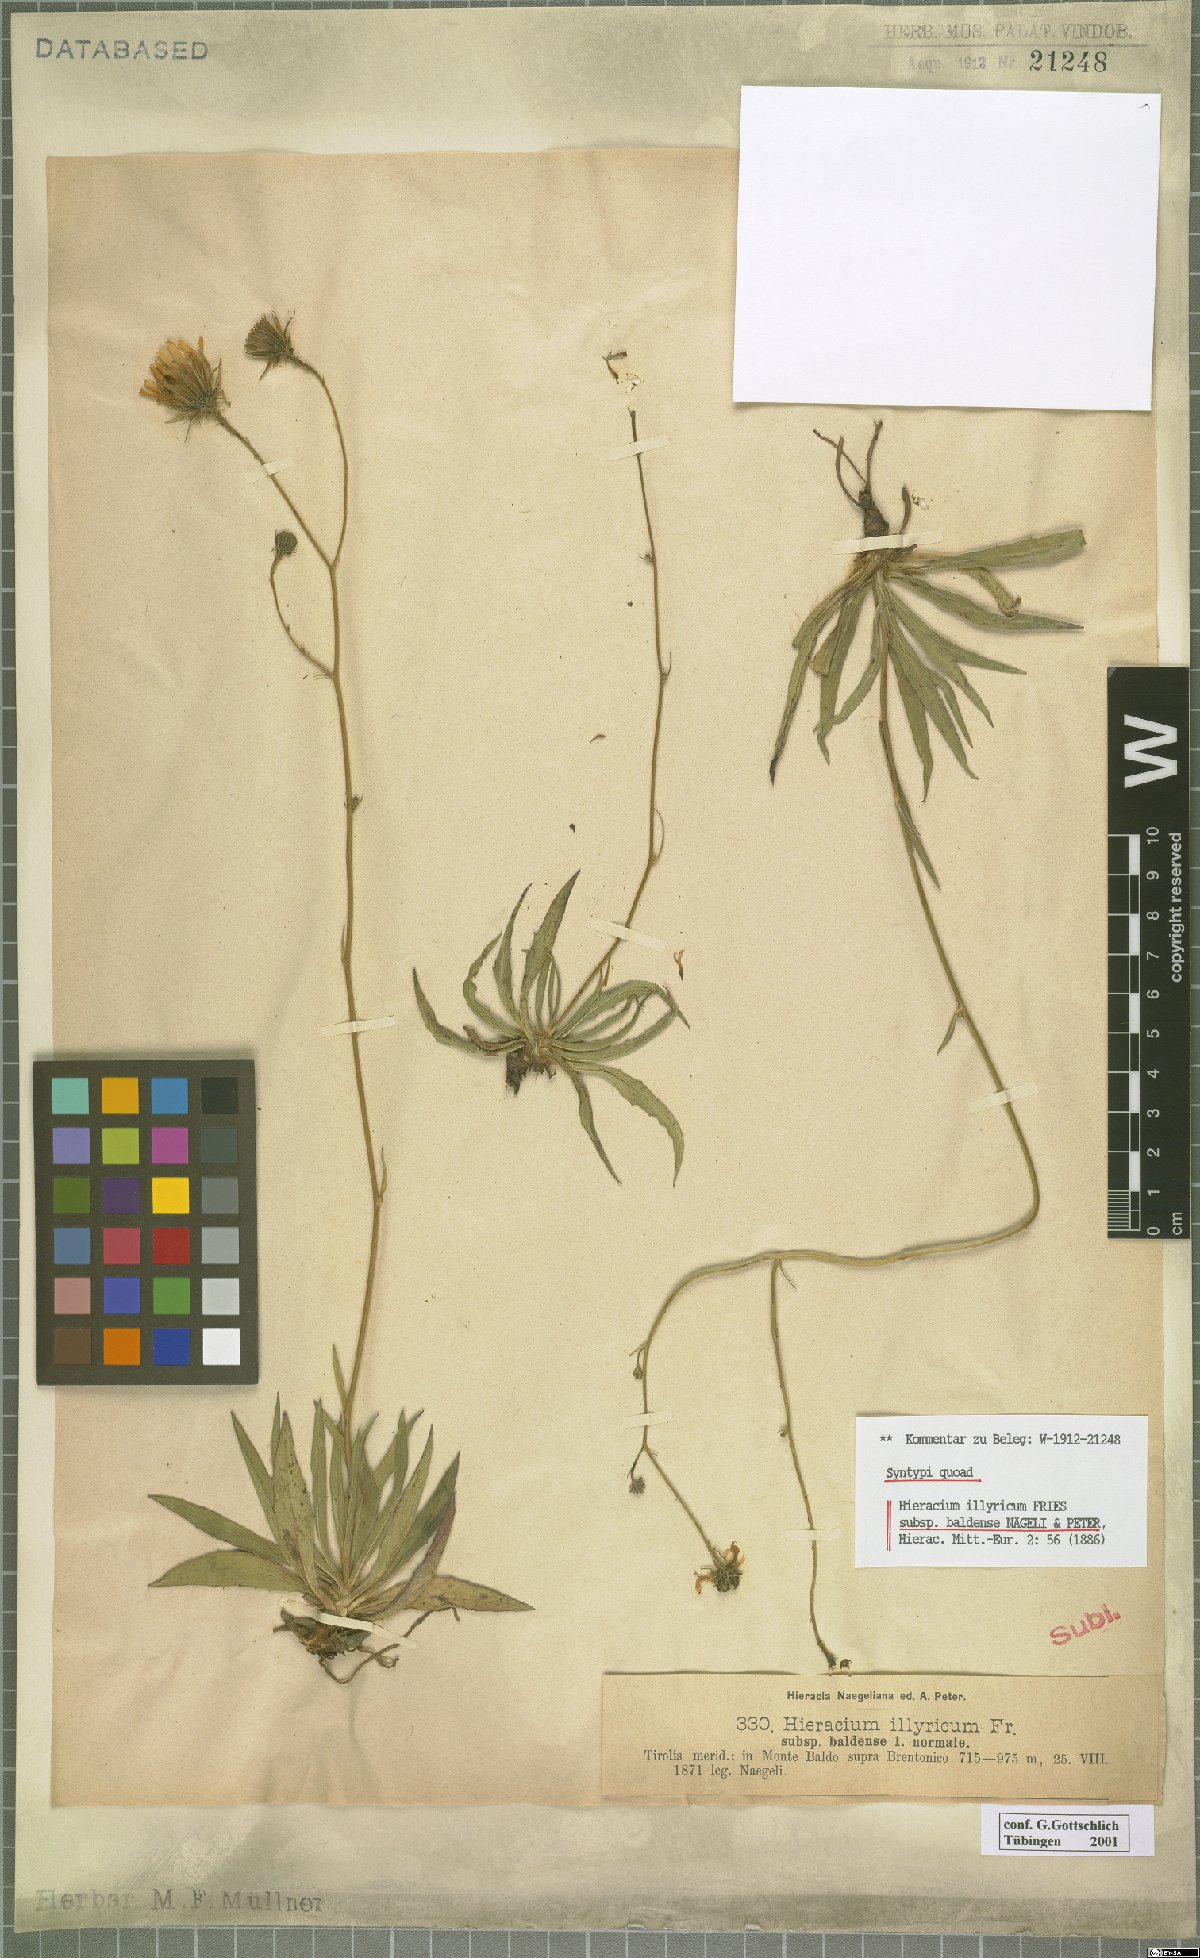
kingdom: Plantae
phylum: Tracheophyta
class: Magnoliopsida
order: Asterales
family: Asteraceae
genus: Hieracium
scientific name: Hieracium calcareum
